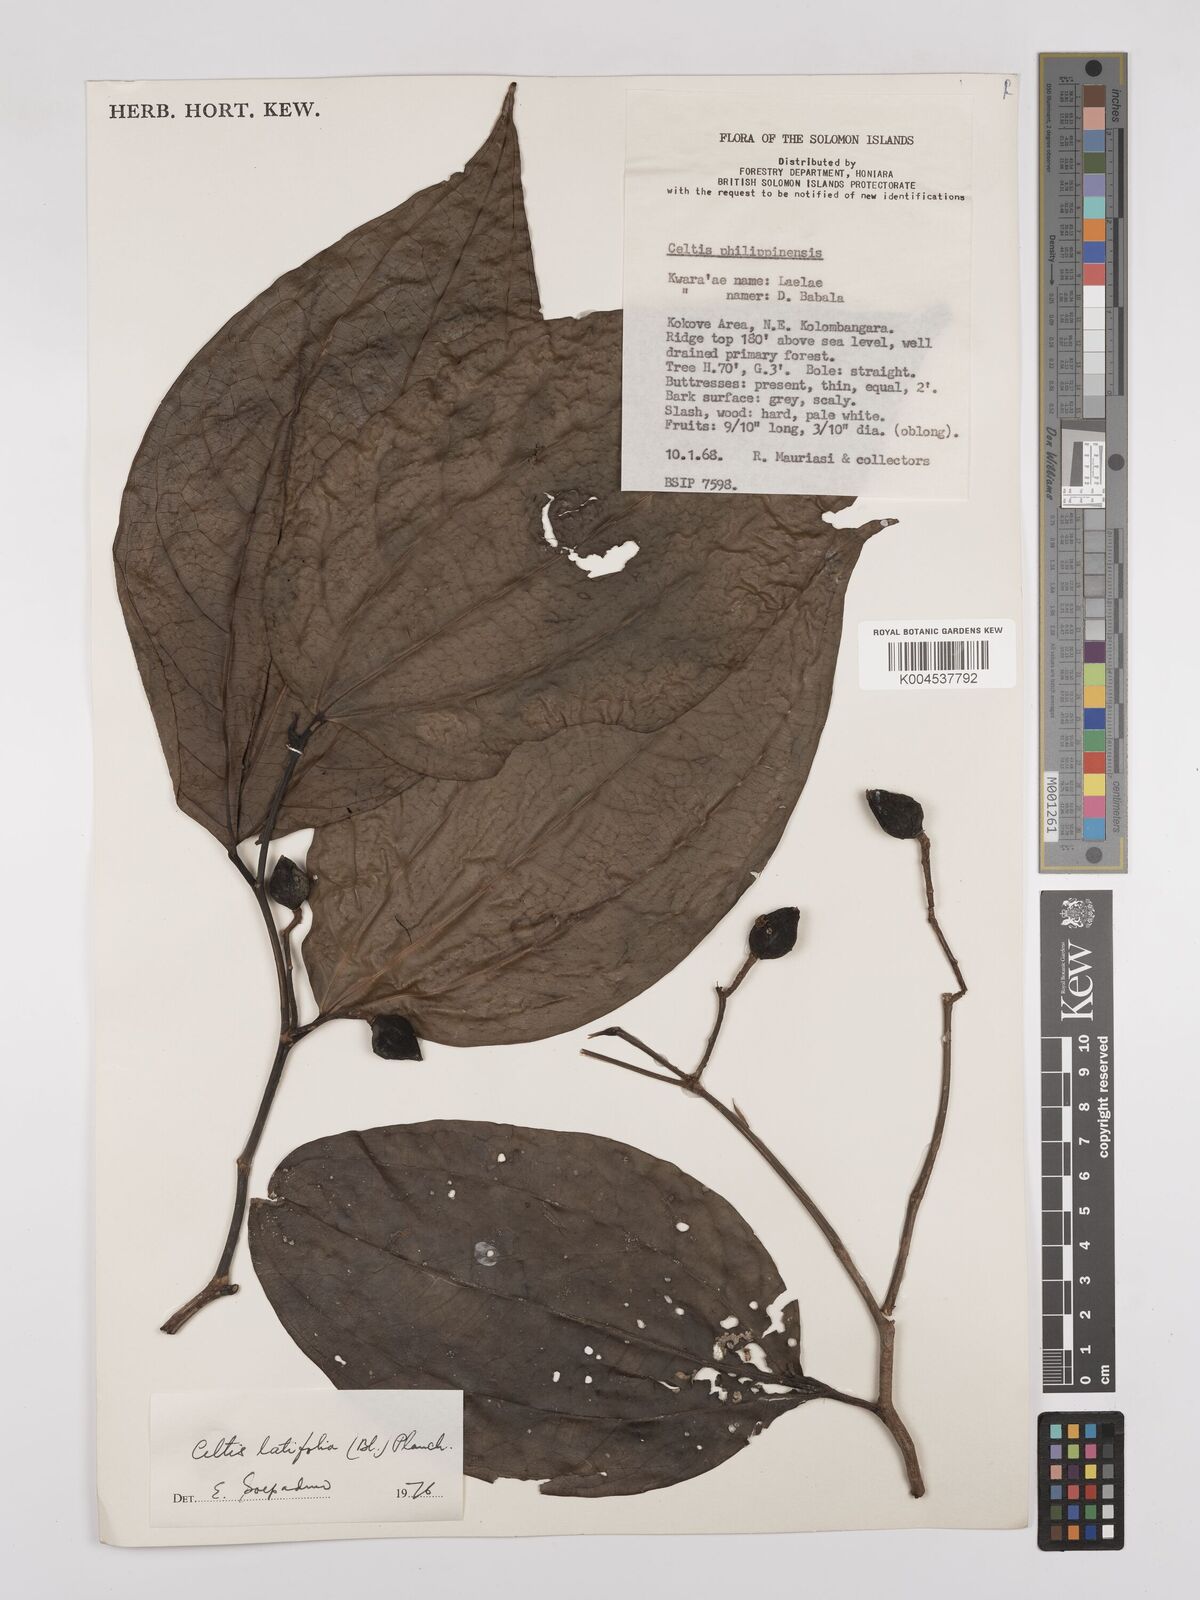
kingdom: Plantae
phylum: Tracheophyta
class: Magnoliopsida
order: Rosales
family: Cannabaceae
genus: Celtis
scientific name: Celtis latifolia
